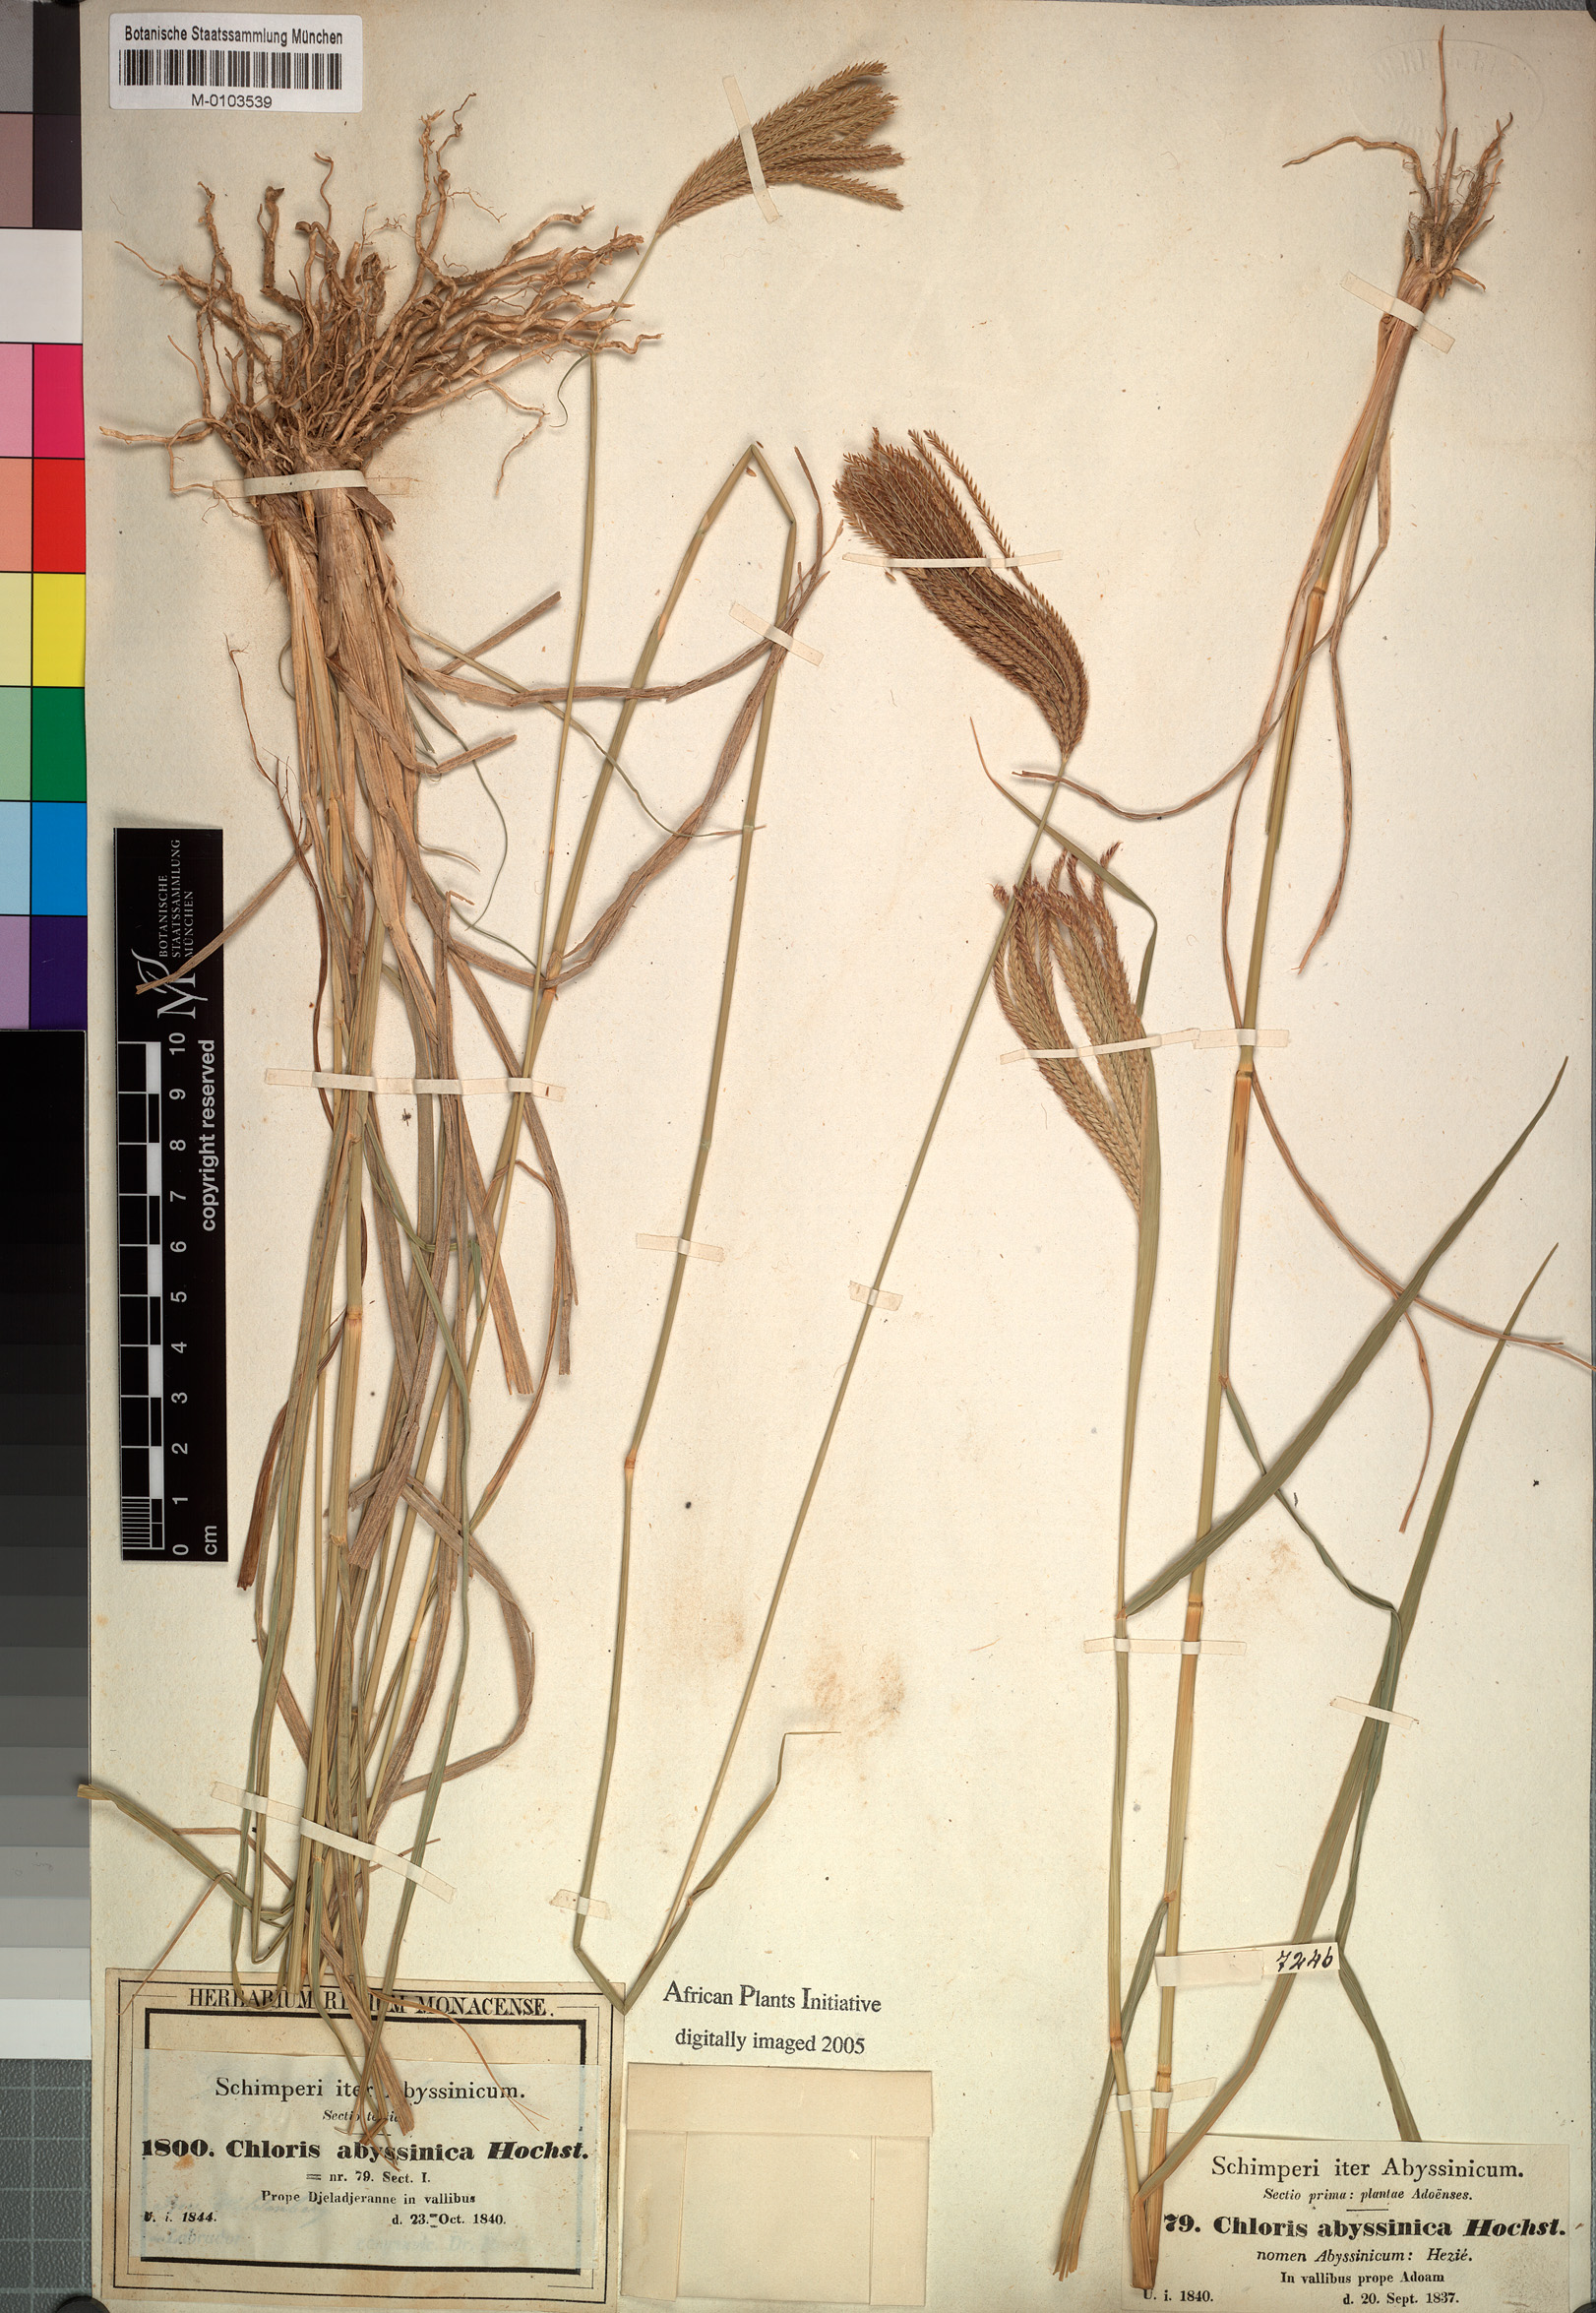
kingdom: Plantae
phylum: Tracheophyta
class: Liliopsida
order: Poales
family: Poaceae
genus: Chloris
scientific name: Chloris gayana
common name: Rhodes grass
